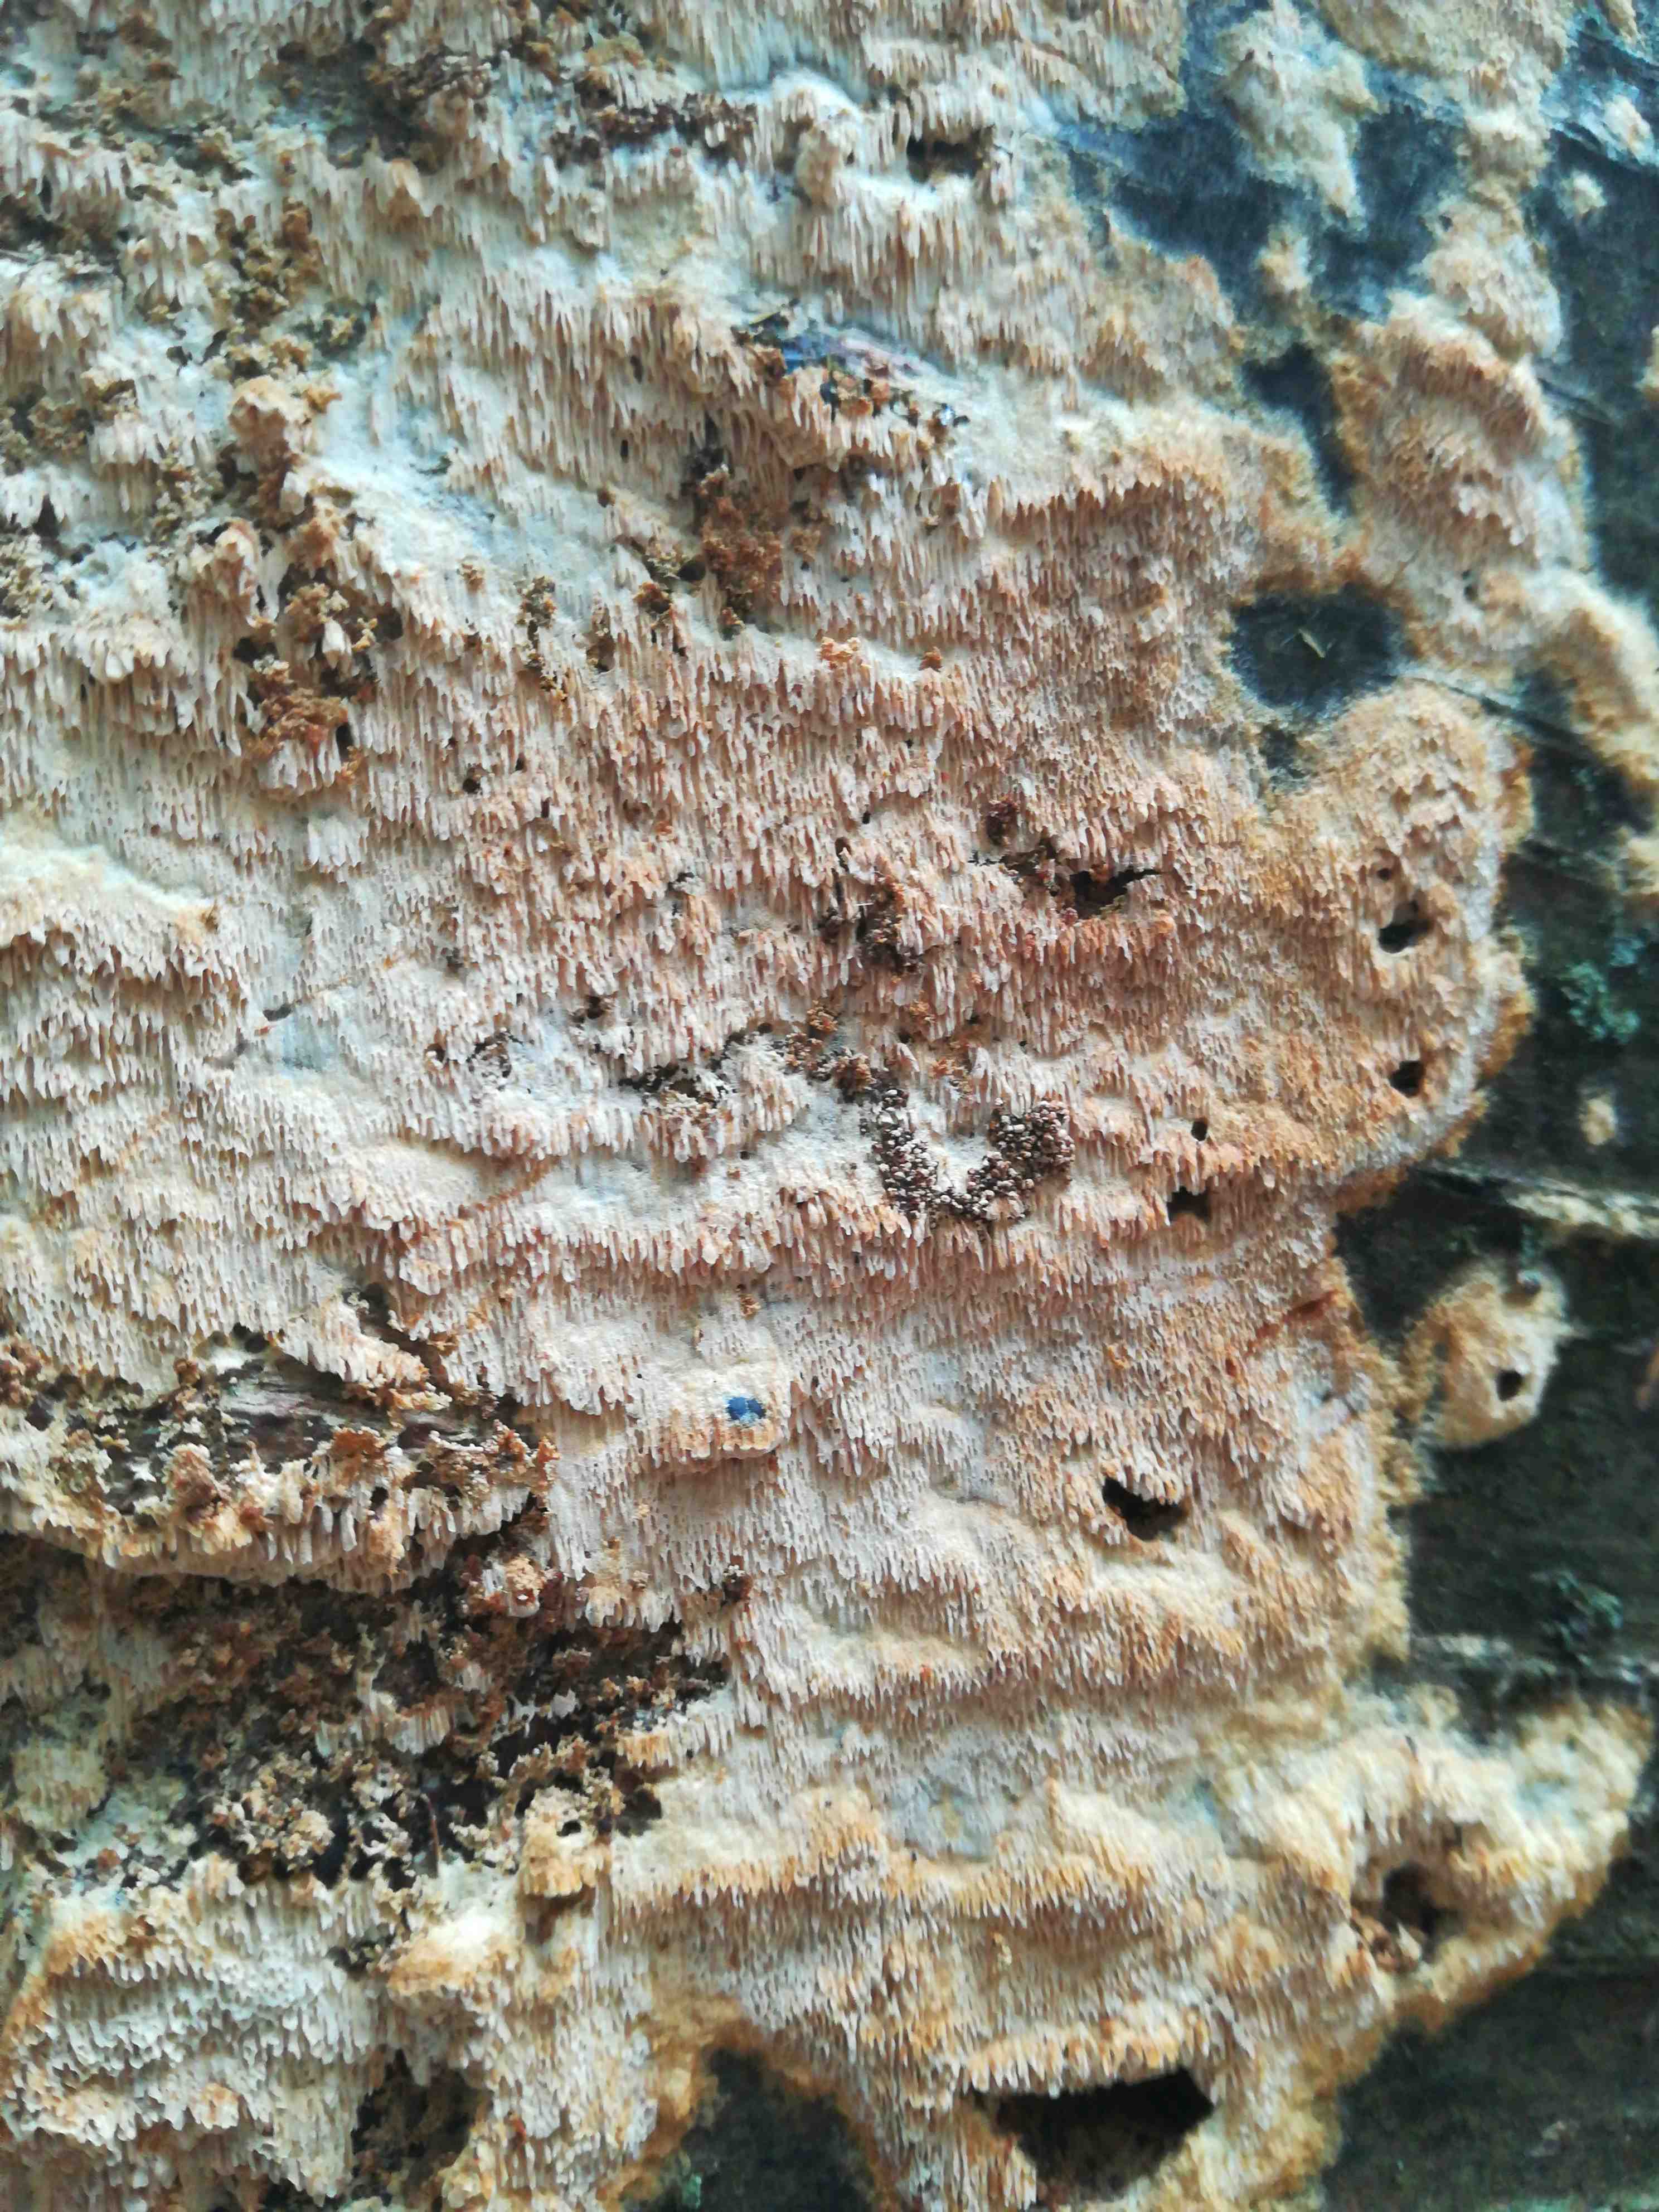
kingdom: Fungi
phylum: Basidiomycota
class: Agaricomycetes
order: Hymenochaetales
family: Schizoporaceae
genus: Xylodon
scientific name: Xylodon
